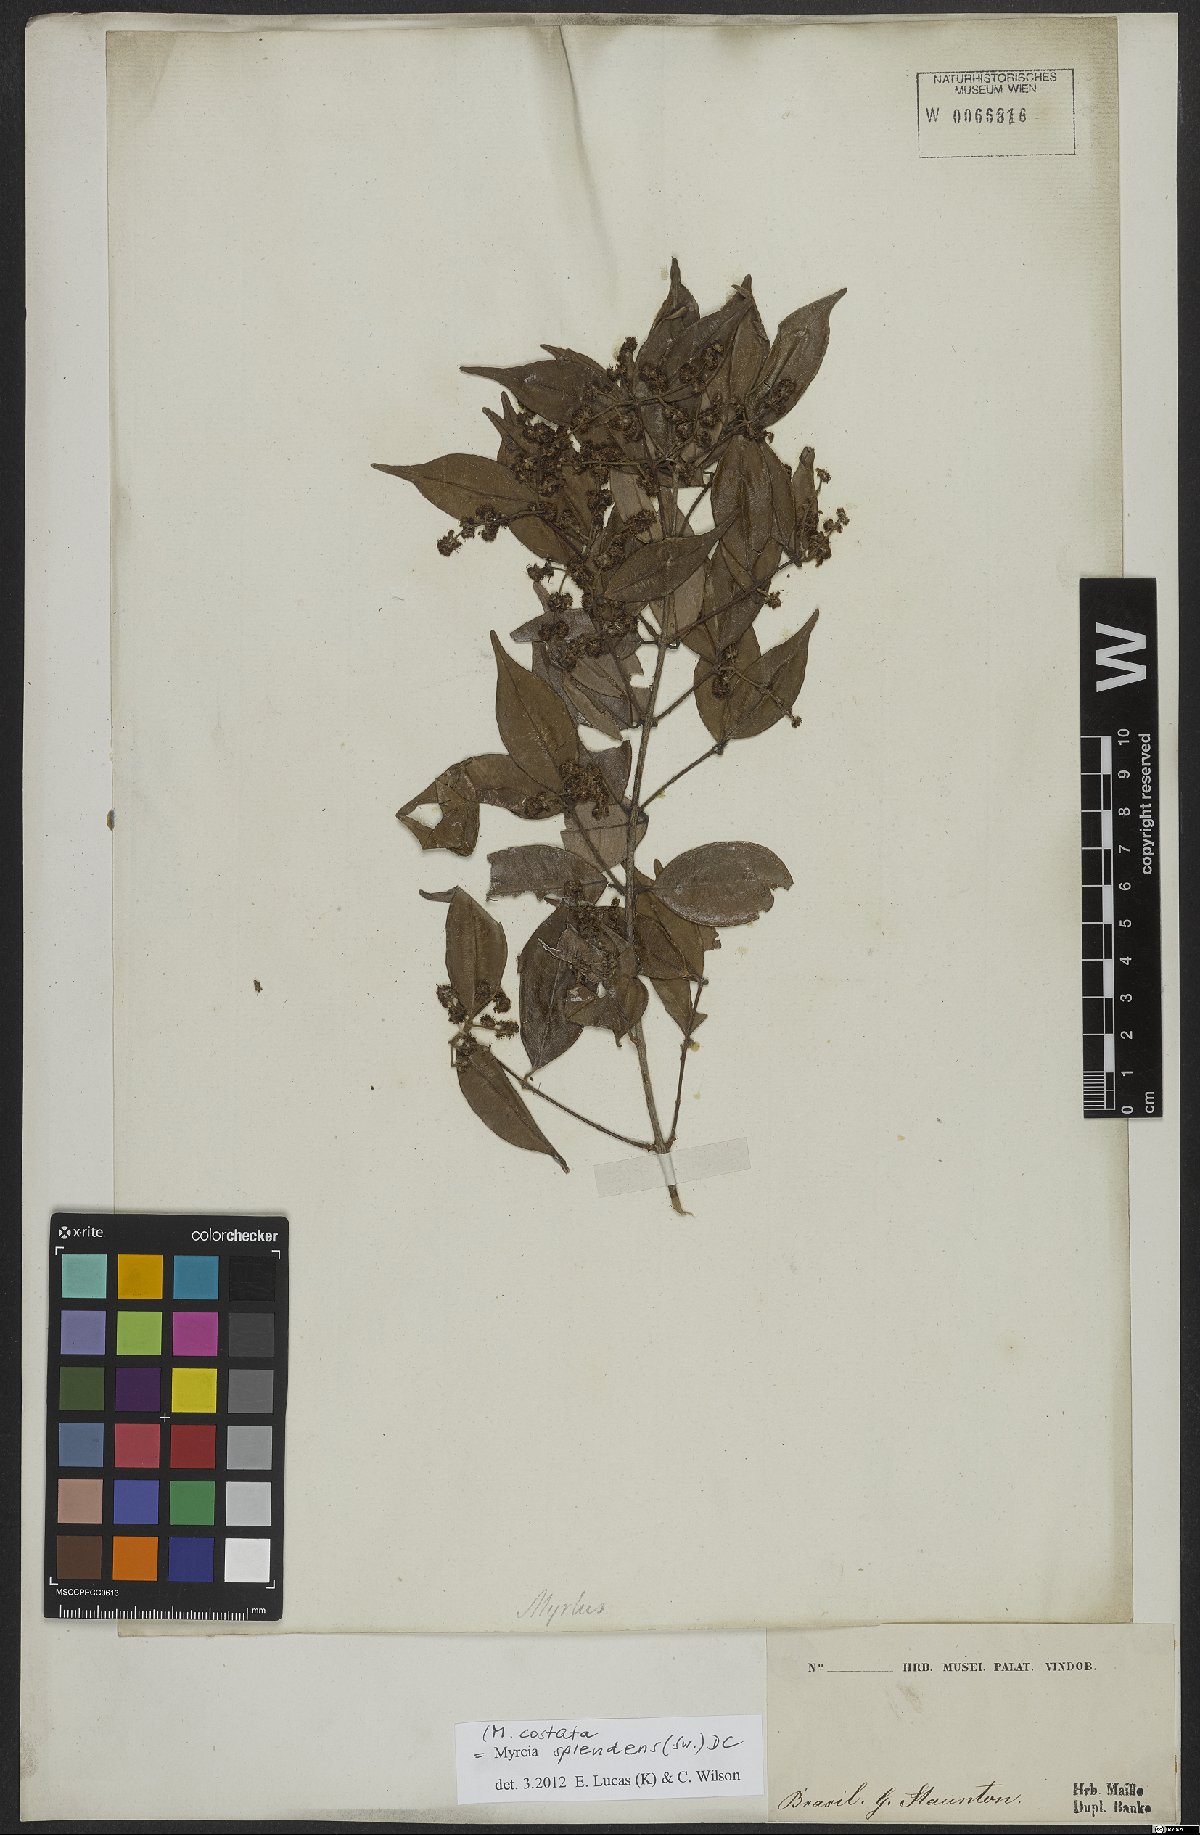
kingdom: Plantae
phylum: Tracheophyta
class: Magnoliopsida
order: Myrtales
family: Myrtaceae
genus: Myrcia
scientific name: Myrcia splendens
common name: Surinam cherry
